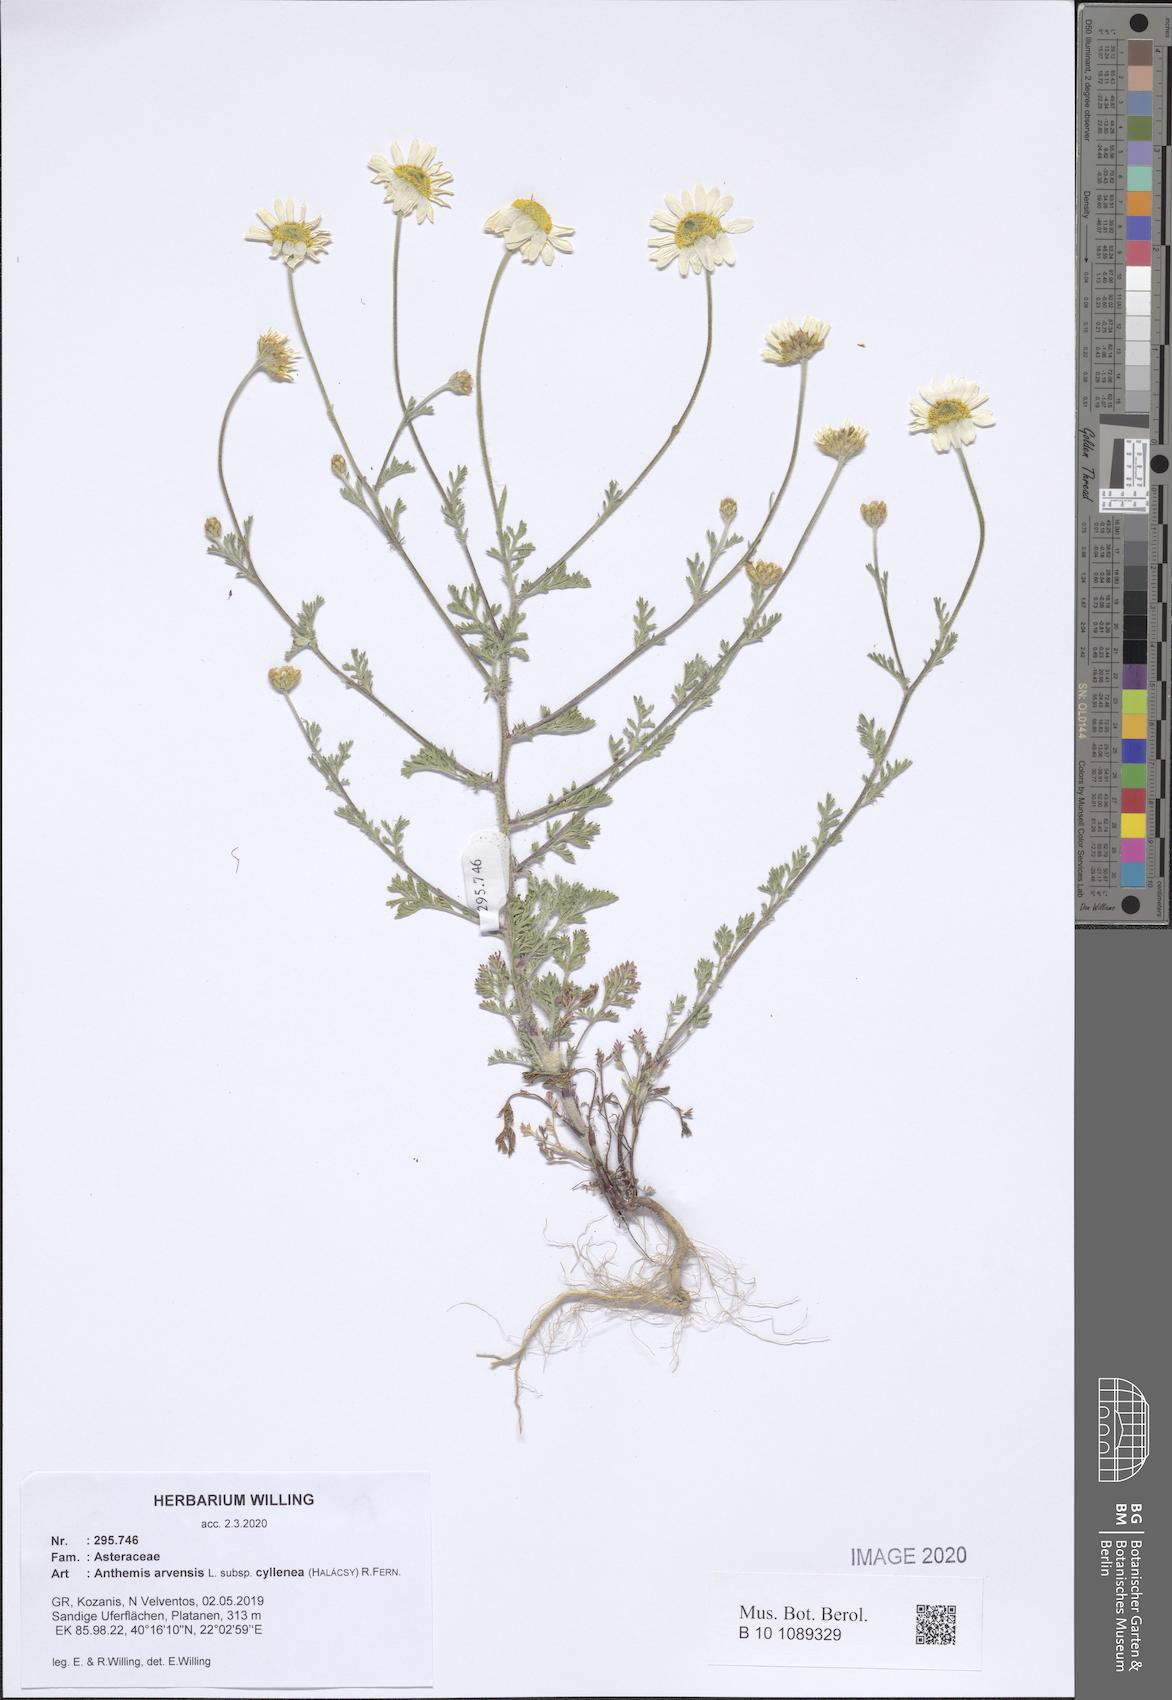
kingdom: Plantae
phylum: Tracheophyta
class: Magnoliopsida
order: Asterales
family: Asteraceae
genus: Anthemis
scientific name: Anthemis arvensis
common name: Corn chamomile
